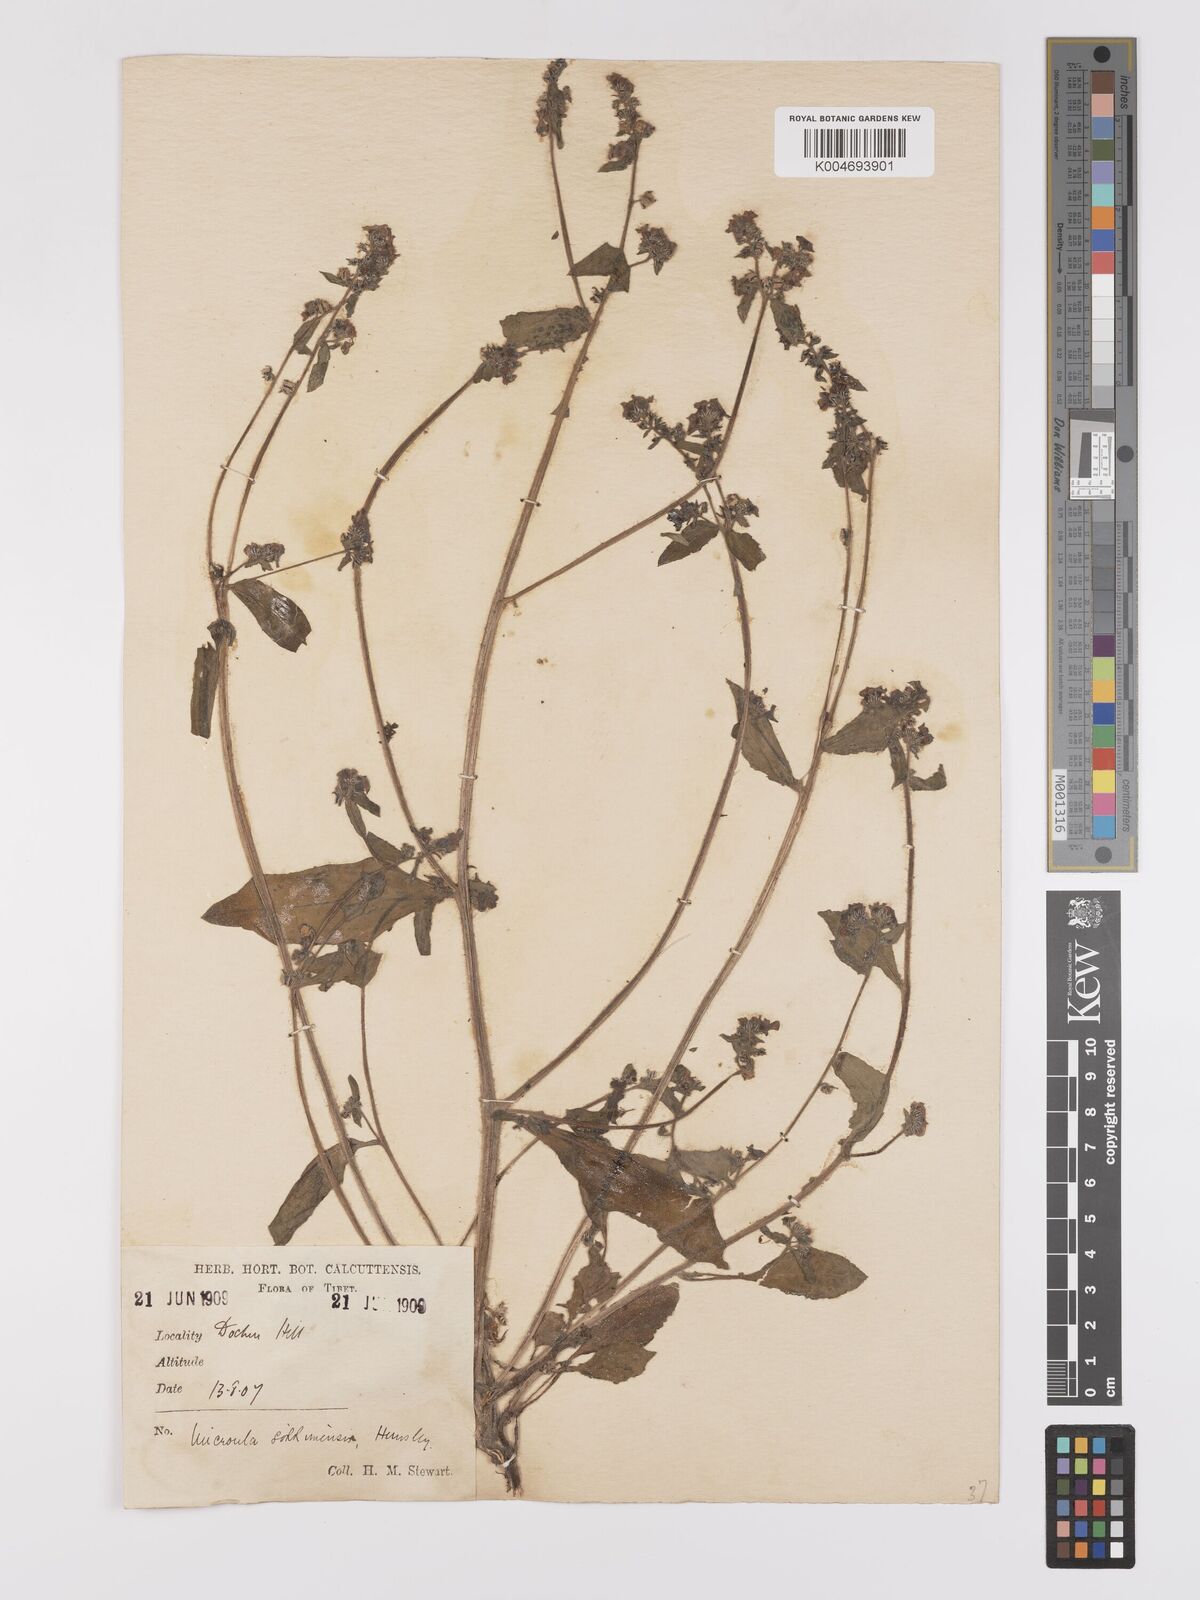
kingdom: Plantae
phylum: Tracheophyta
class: Magnoliopsida
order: Boraginales
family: Boraginaceae
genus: Microula
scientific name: Microula sikkimensis
